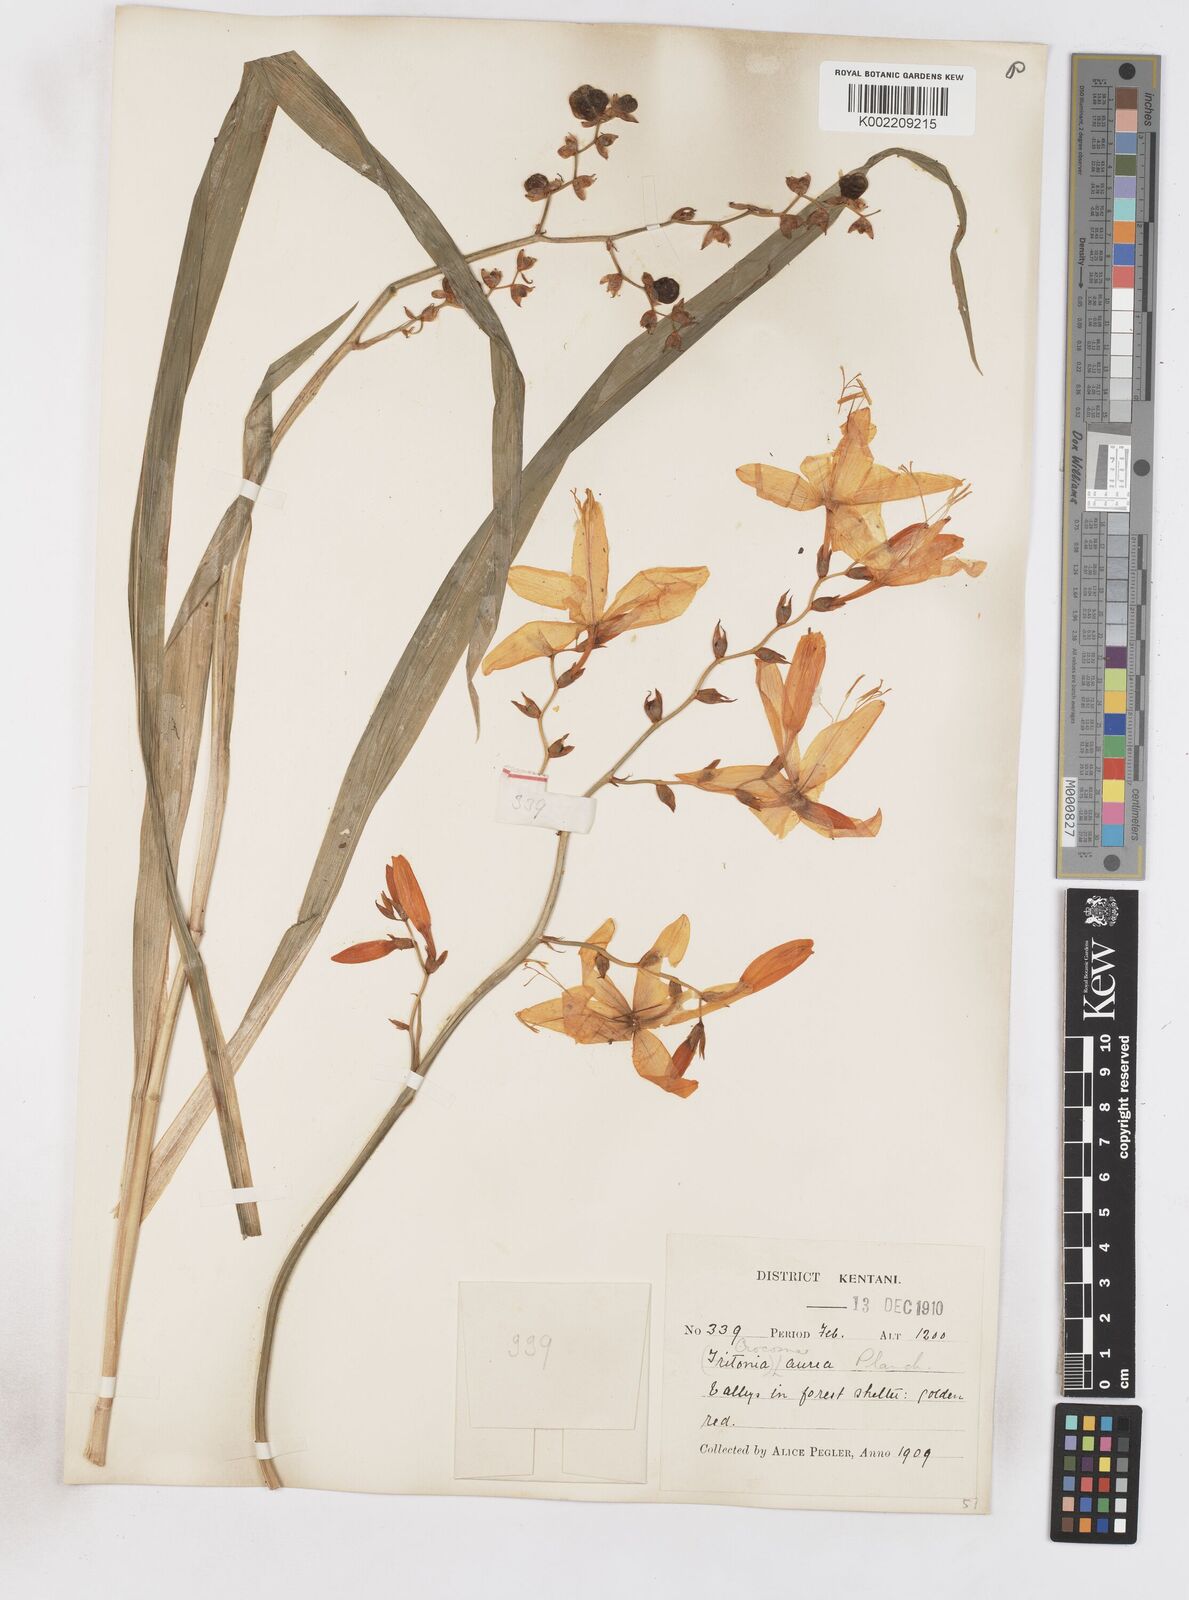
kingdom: Plantae
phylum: Tracheophyta
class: Liliopsida
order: Asparagales
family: Iridaceae
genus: Crocosmia
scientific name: Crocosmia aurea
